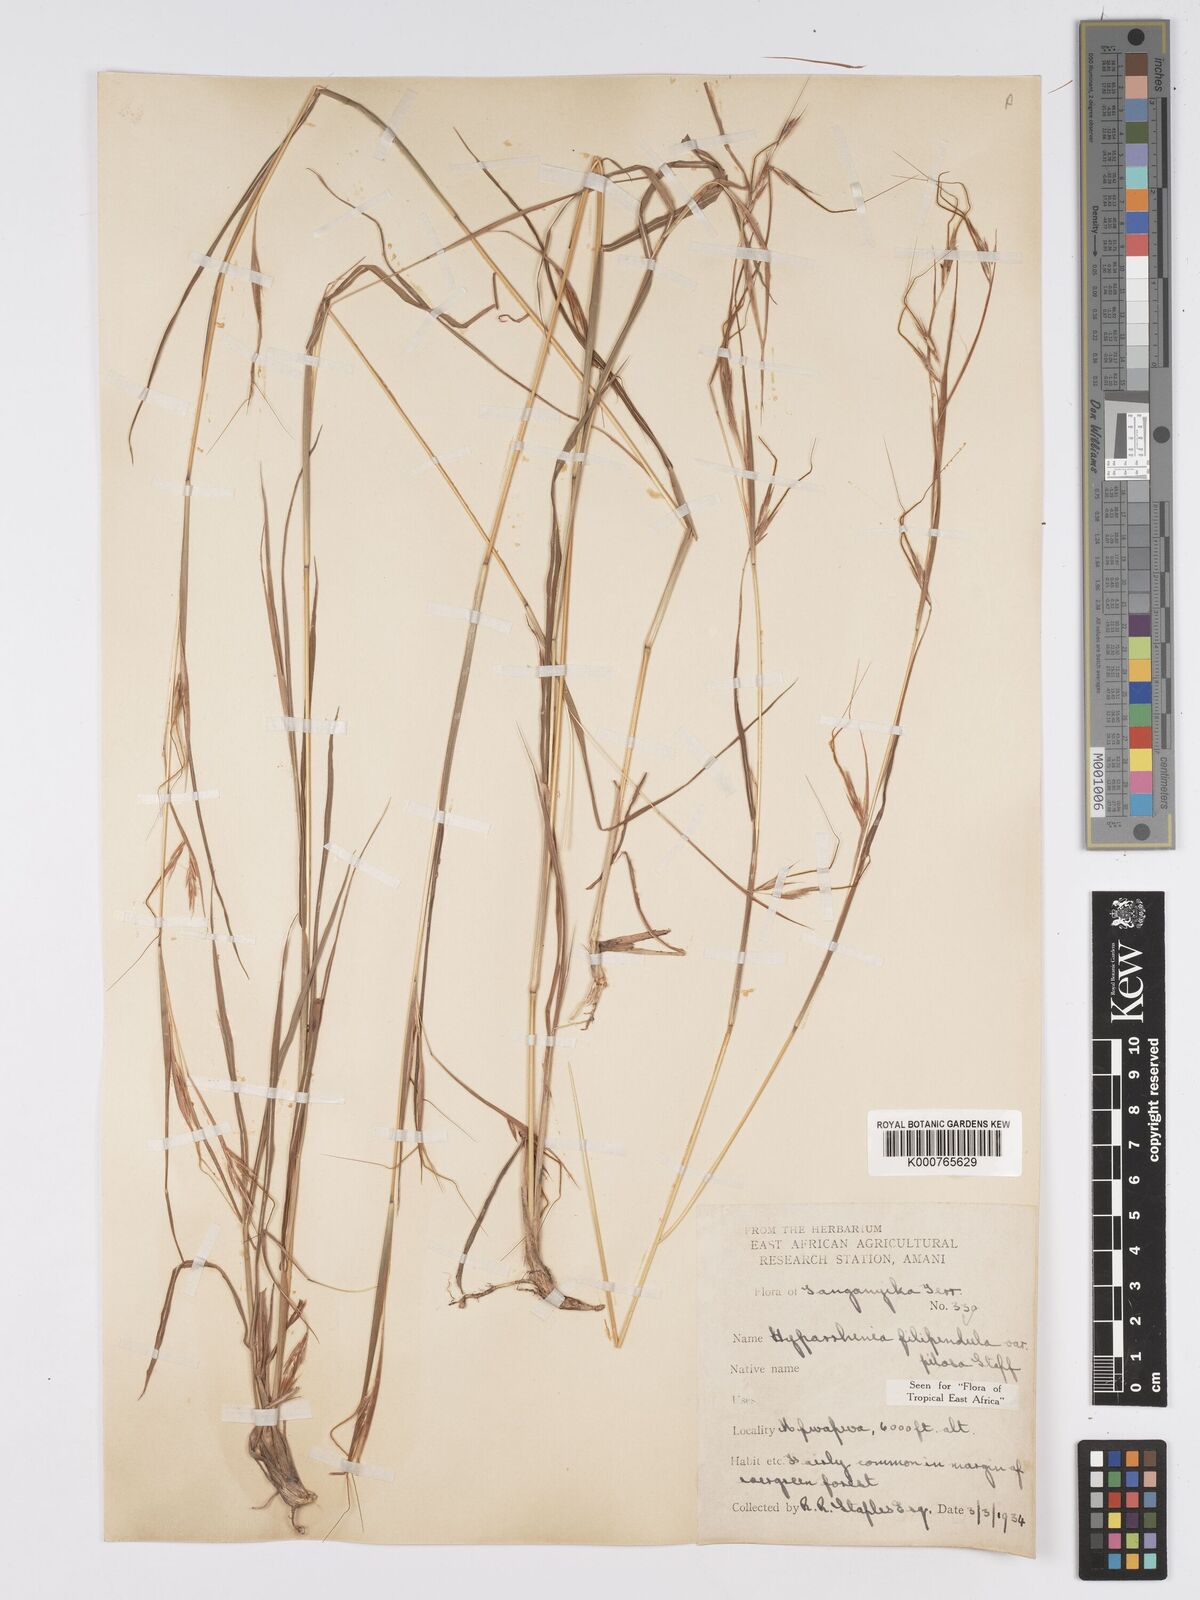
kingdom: Plantae
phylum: Tracheophyta
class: Liliopsida
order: Poales
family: Poaceae
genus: Hyparrhenia
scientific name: Hyparrhenia filipendula
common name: Tambookie grass
